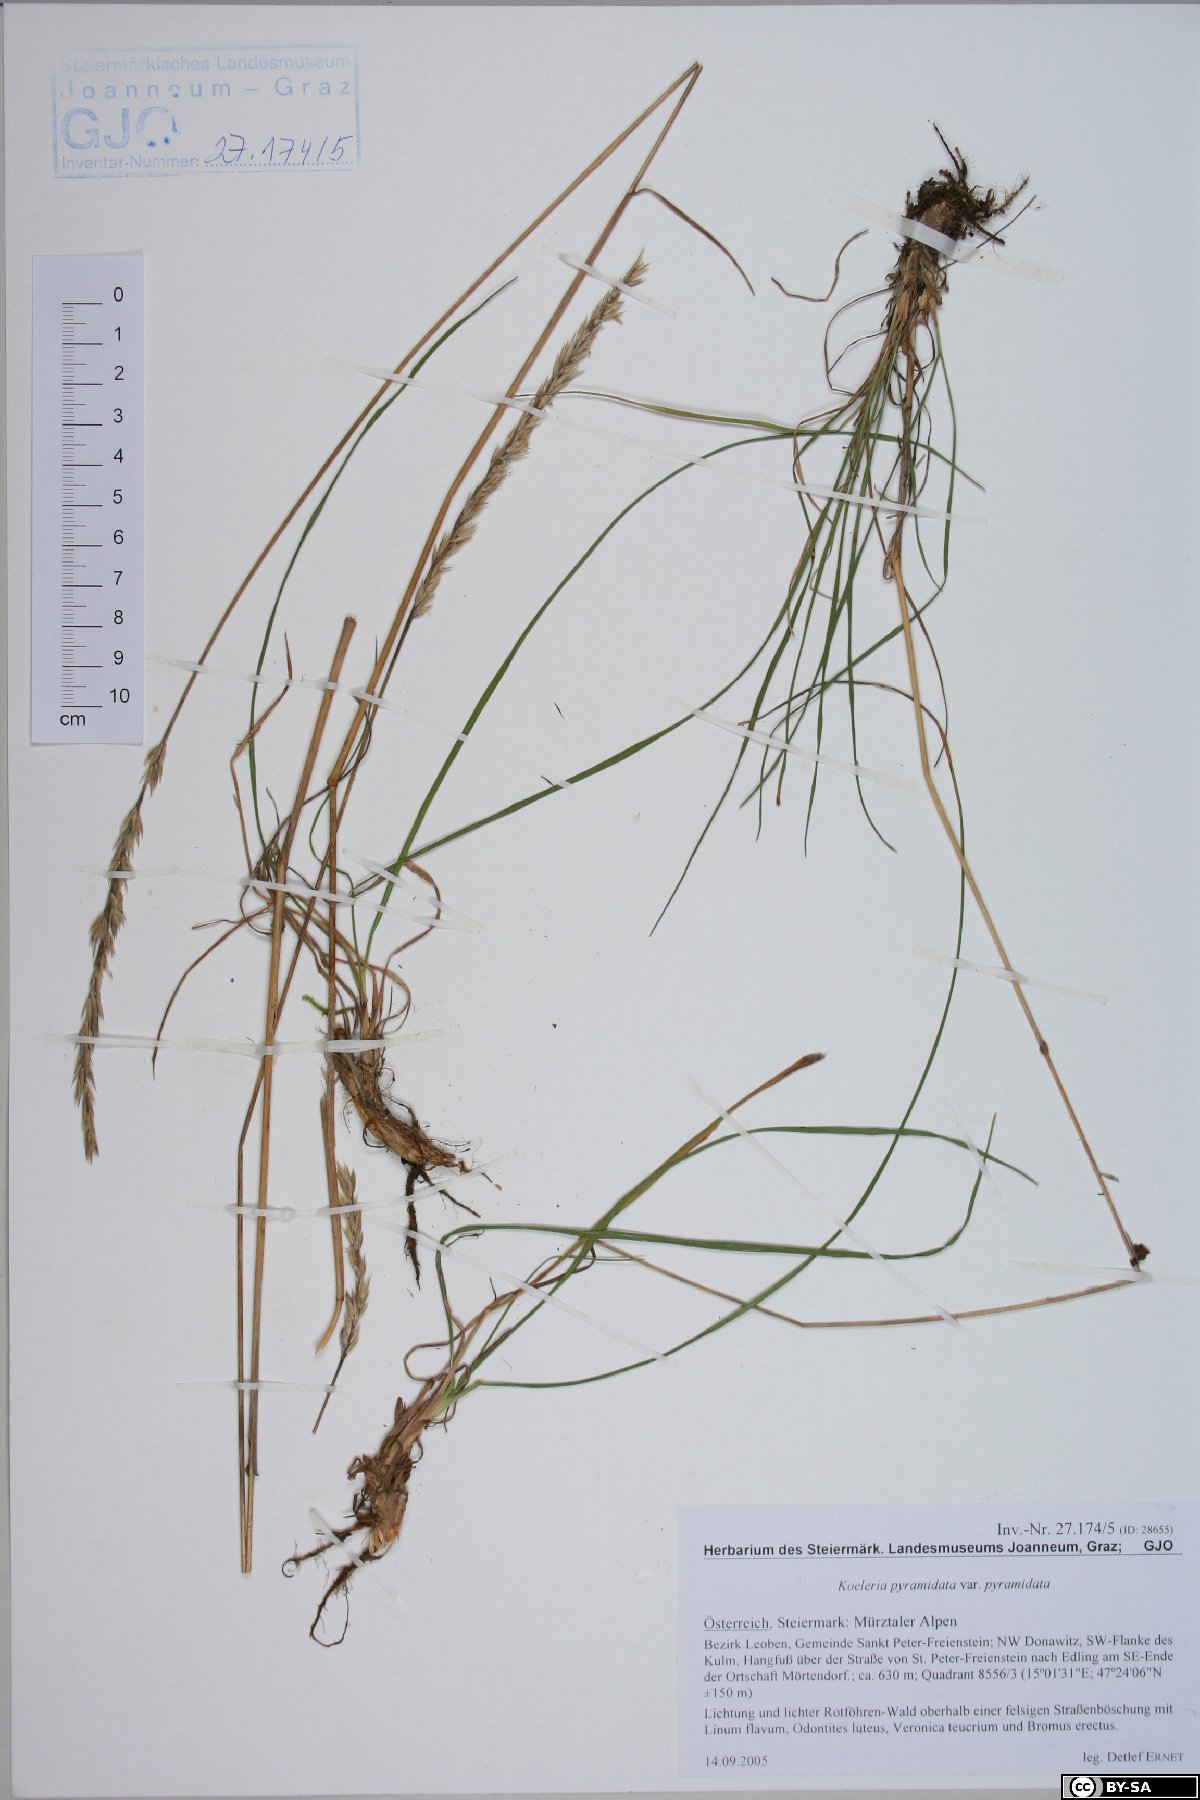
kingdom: Plantae
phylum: Tracheophyta
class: Liliopsida
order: Poales
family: Poaceae
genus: Koeleria
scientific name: Koeleria pyramidata
